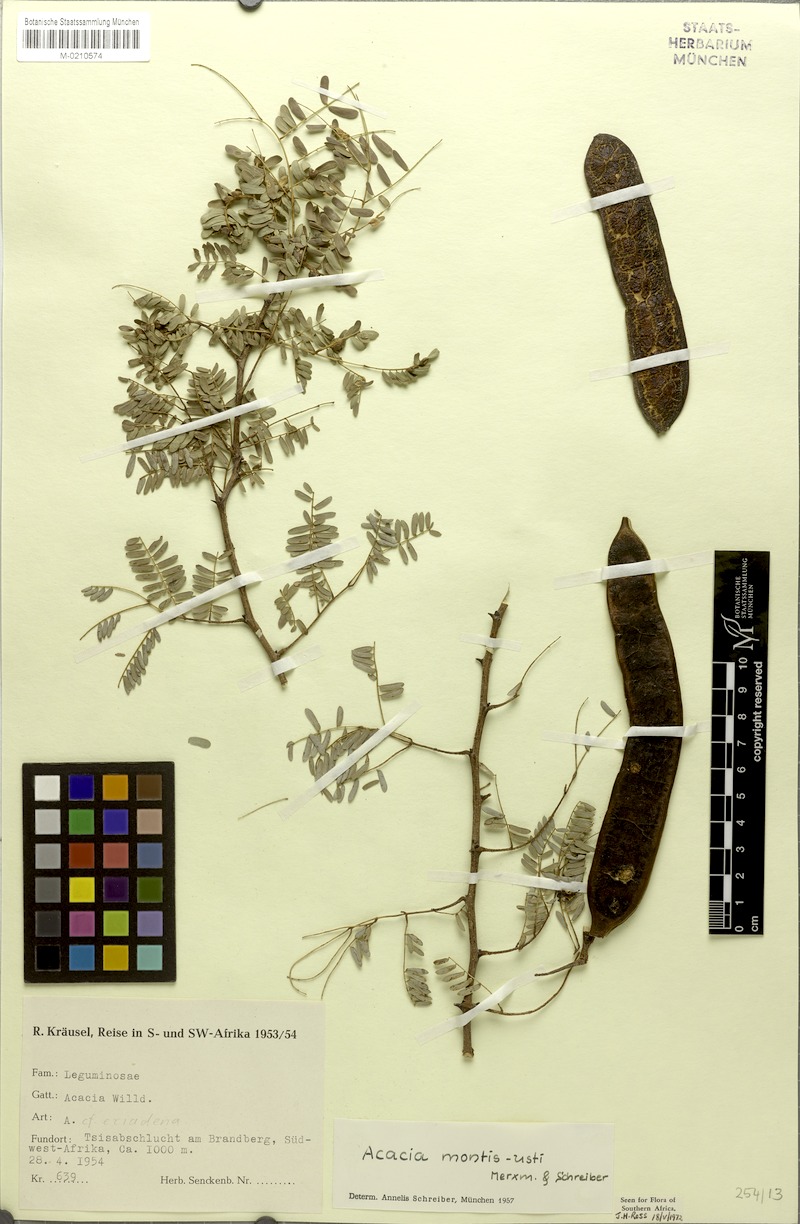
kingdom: Plantae
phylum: Tracheophyta
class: Magnoliopsida
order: Fabales
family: Fabaceae
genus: Senegalia
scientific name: Senegalia montis-usti
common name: Brandberg acacia
